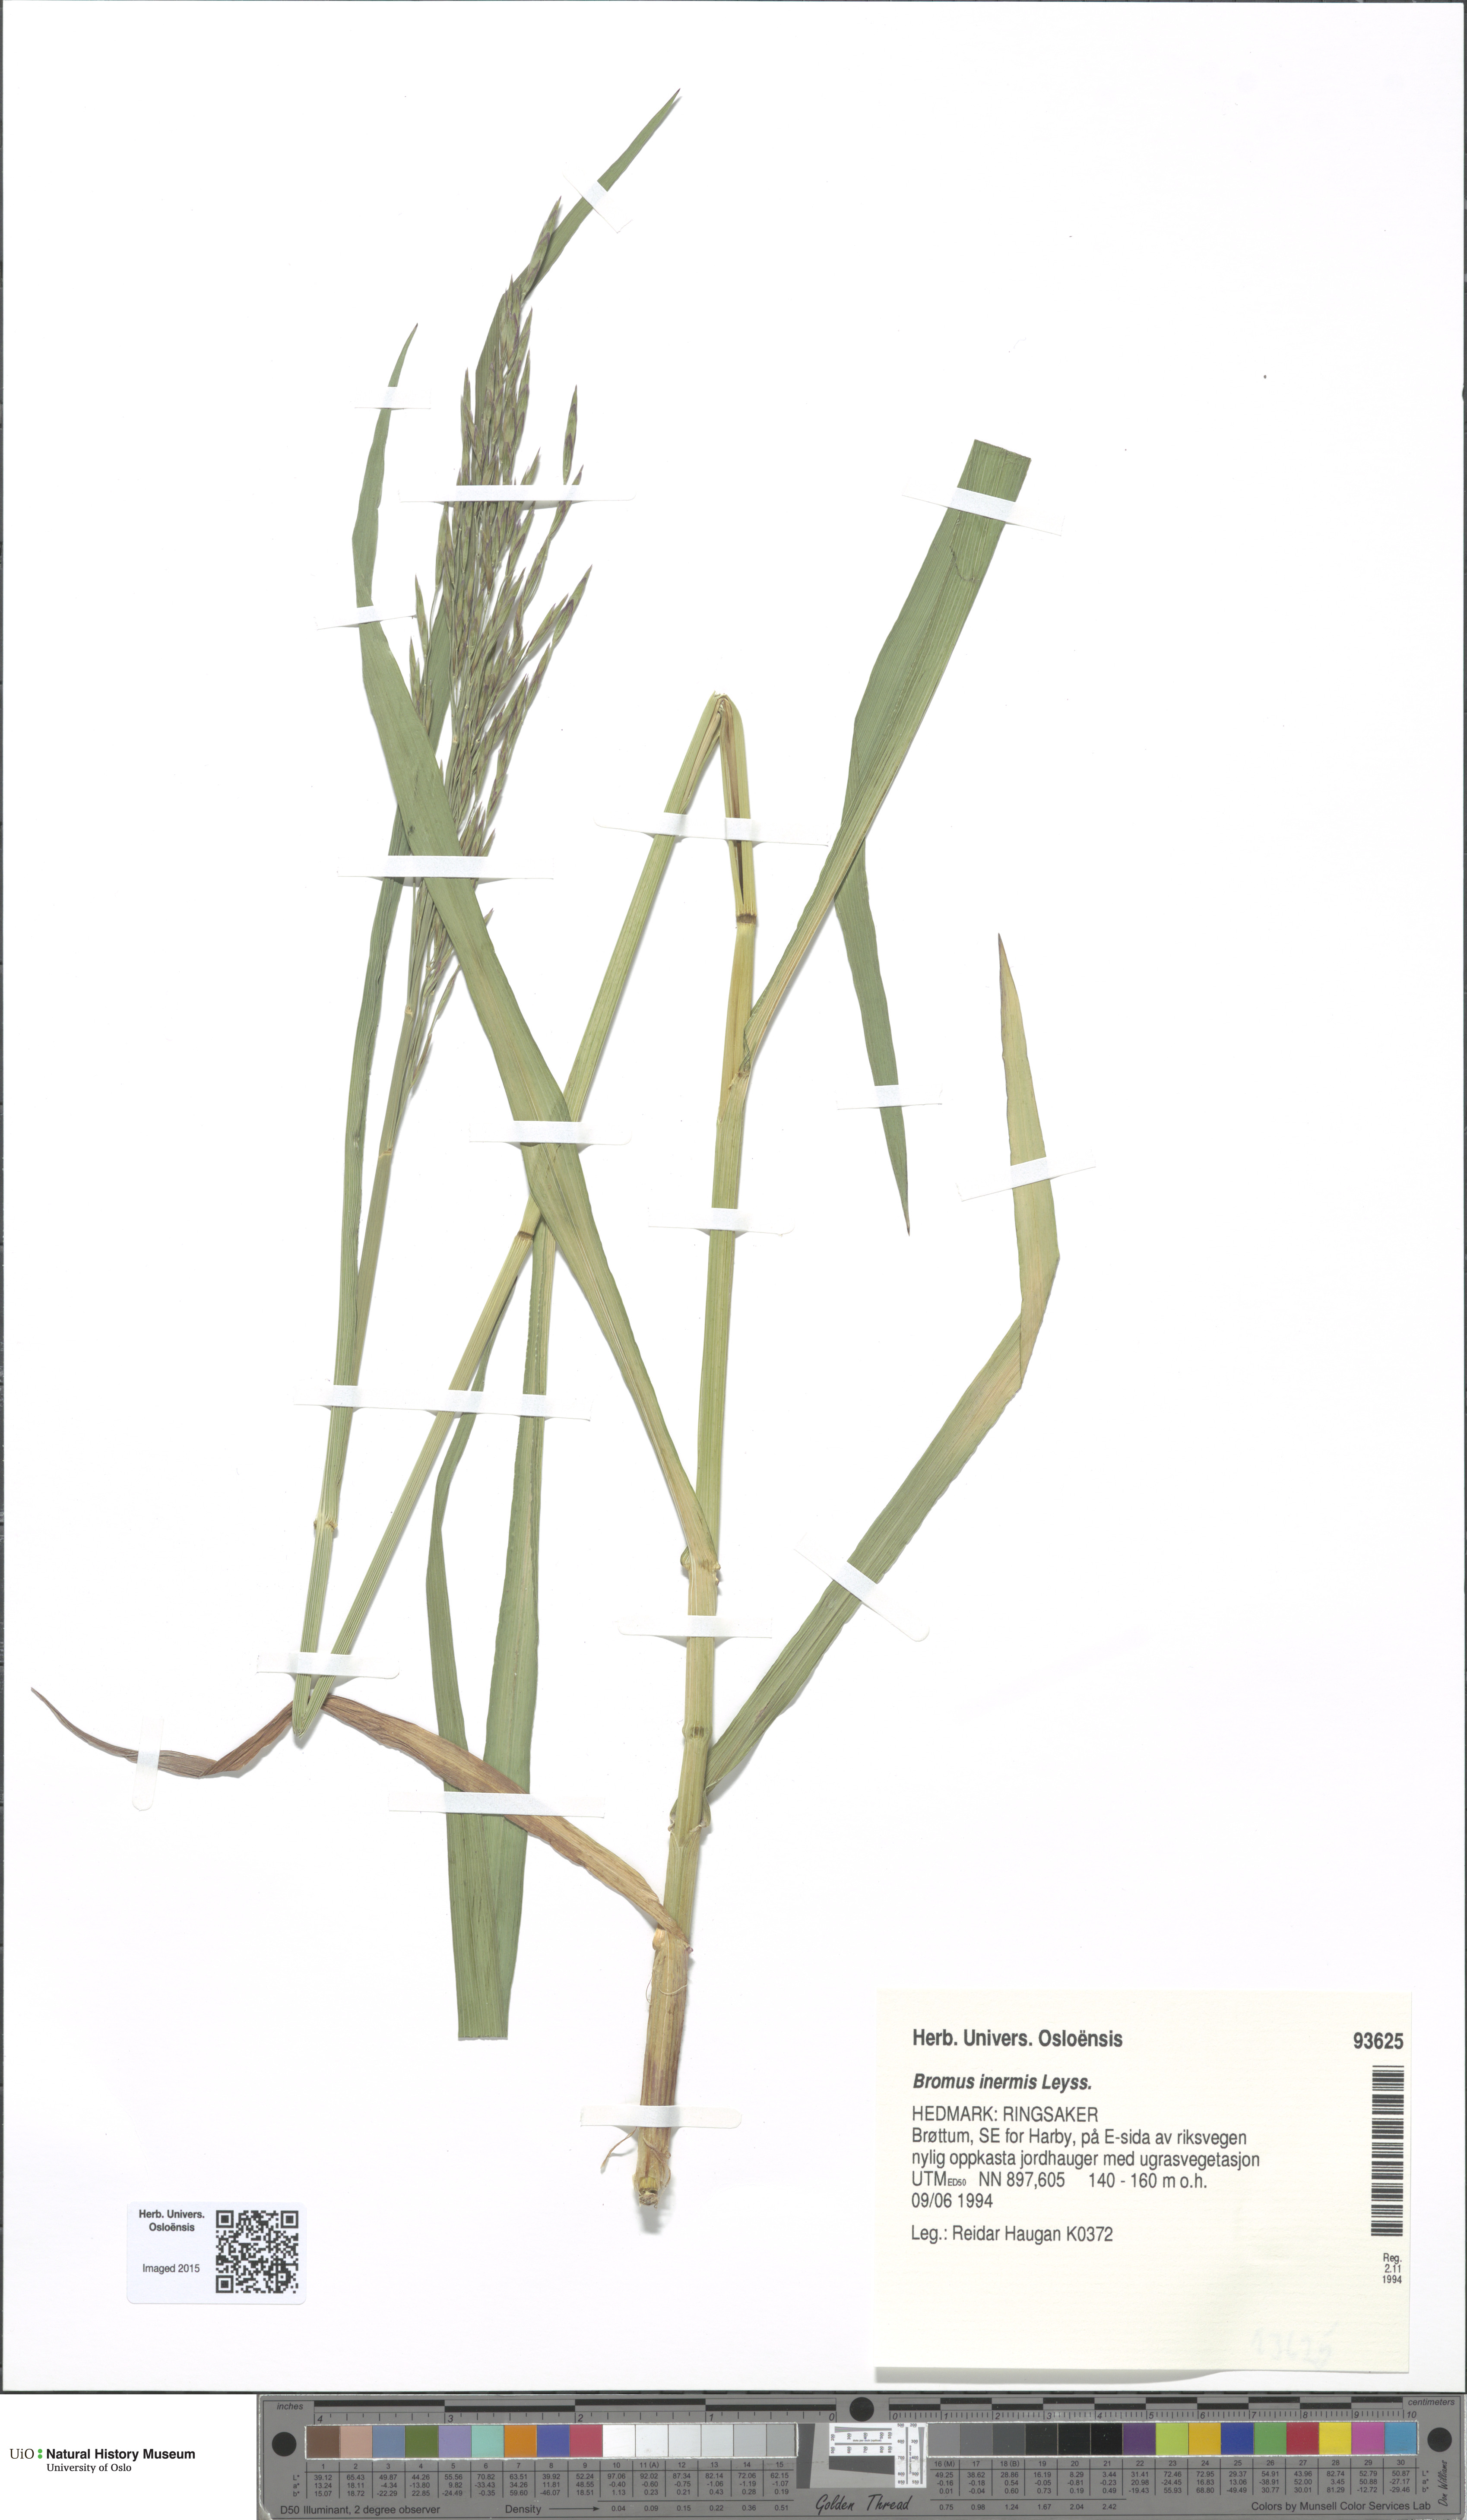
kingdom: Plantae
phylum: Tracheophyta
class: Liliopsida
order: Poales
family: Poaceae
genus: Bromus
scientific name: Bromus inermis
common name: Smooth brome
